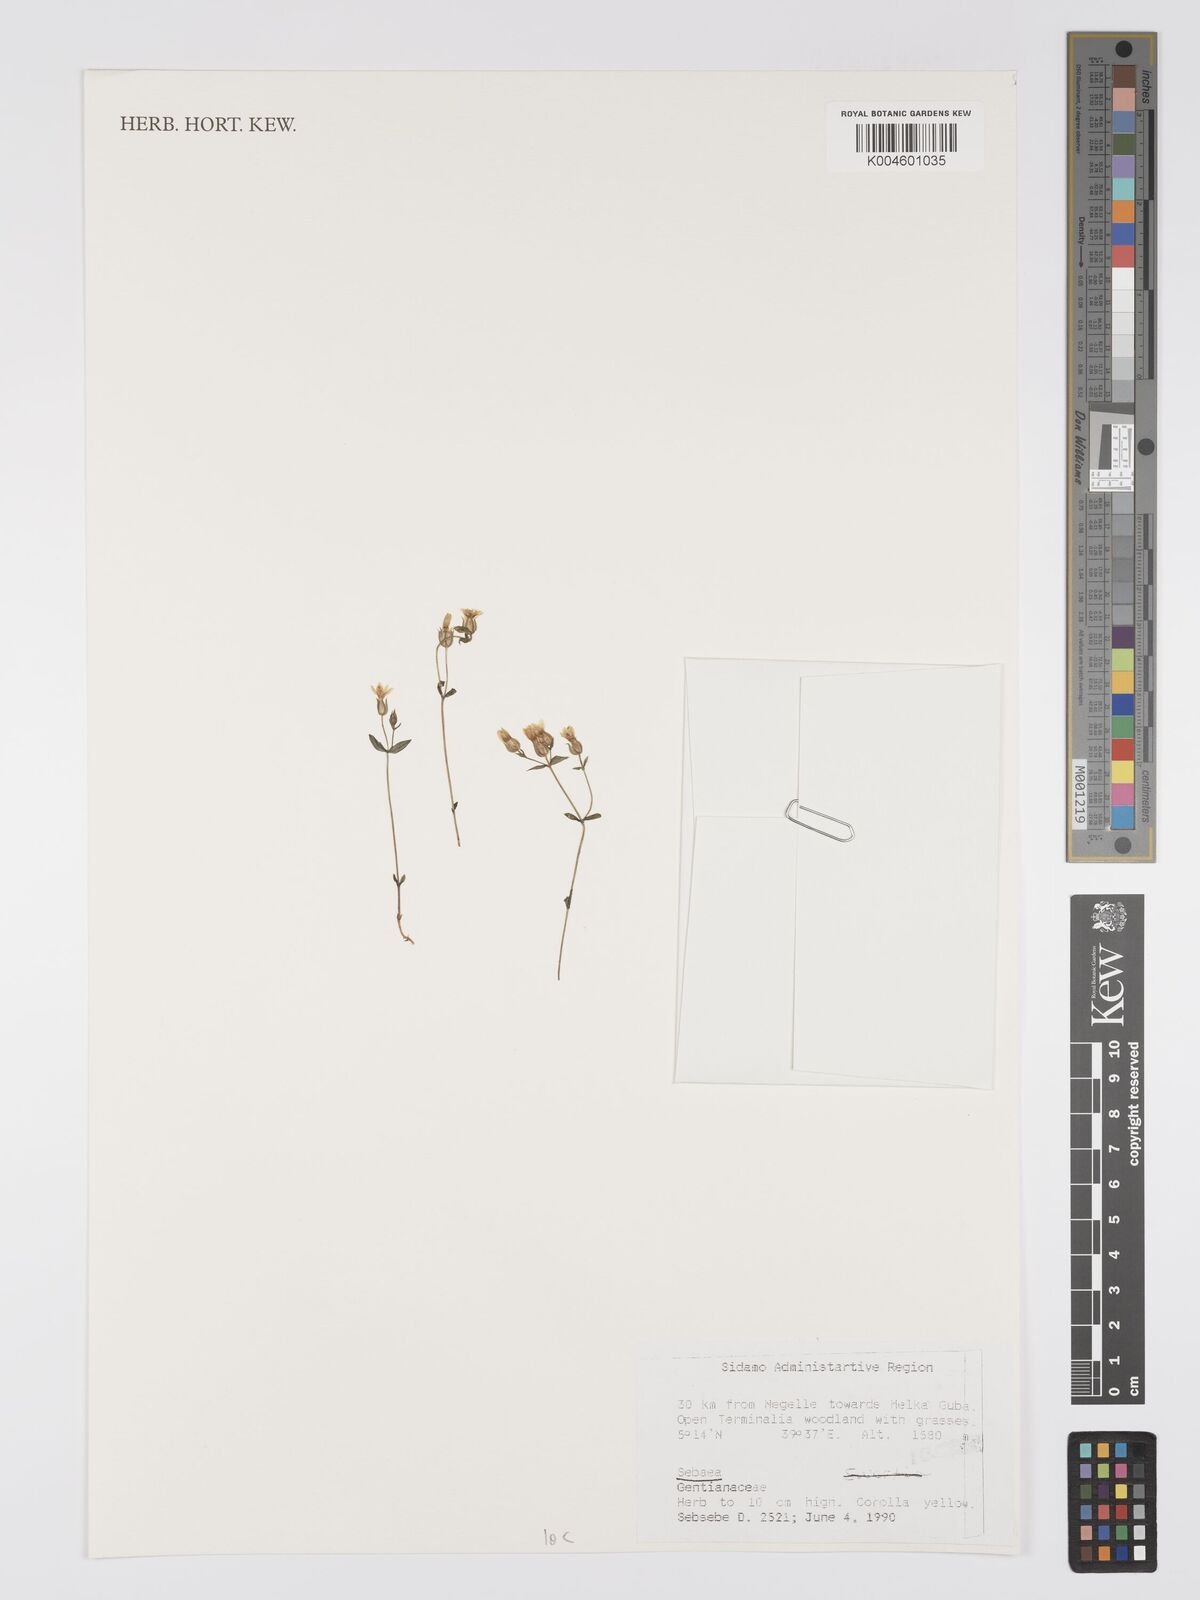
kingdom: Plantae
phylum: Tracheophyta
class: Magnoliopsida
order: Gentianales
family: Gentianaceae
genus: Sebaea
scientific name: Sebaea
